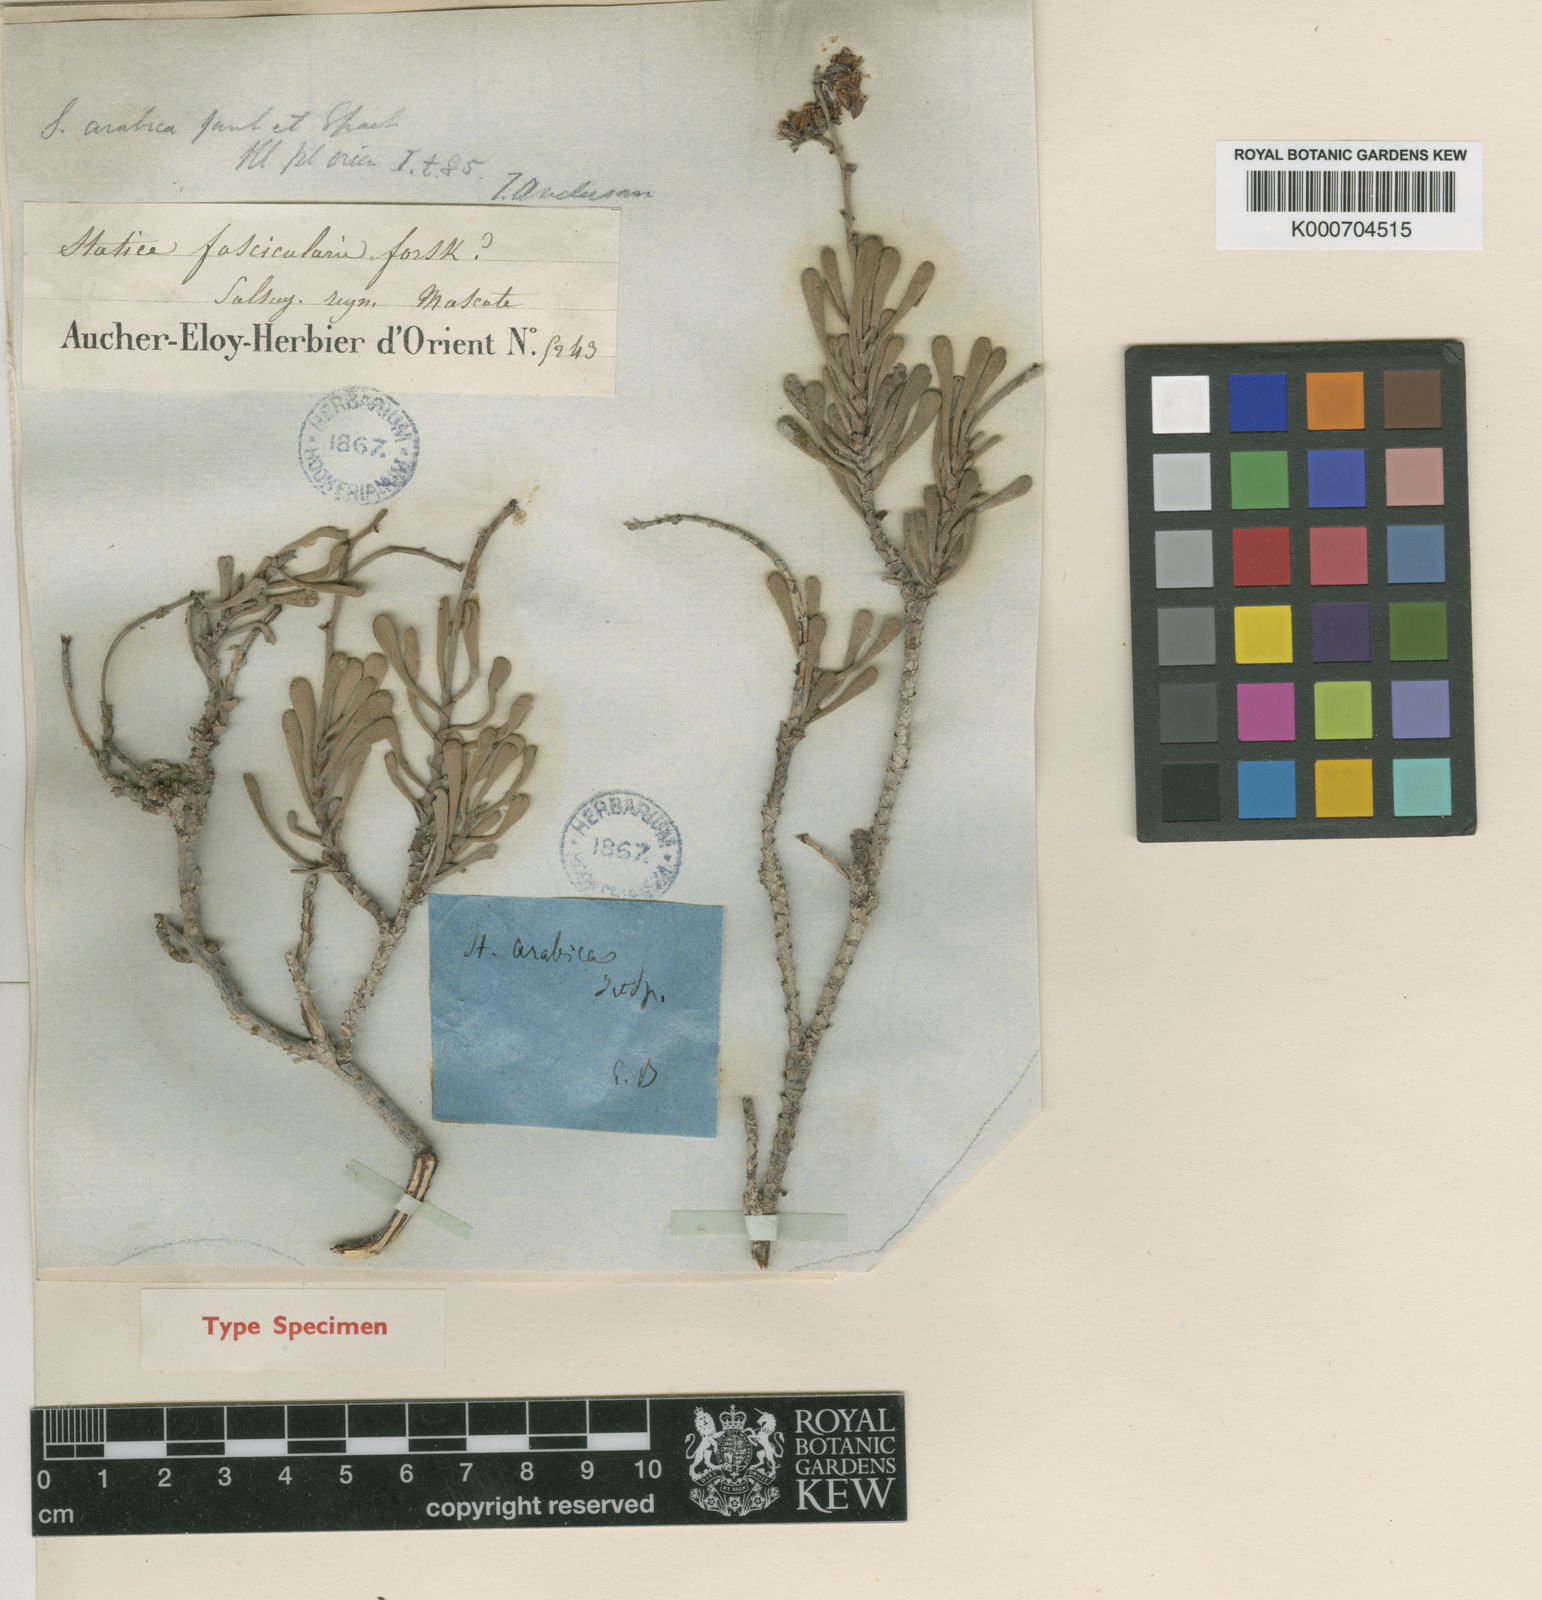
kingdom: Plantae
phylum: Tracheophyta
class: Magnoliopsida
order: Caryophyllales
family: Plumbaginaceae
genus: Limonium
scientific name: Limonium axillare
